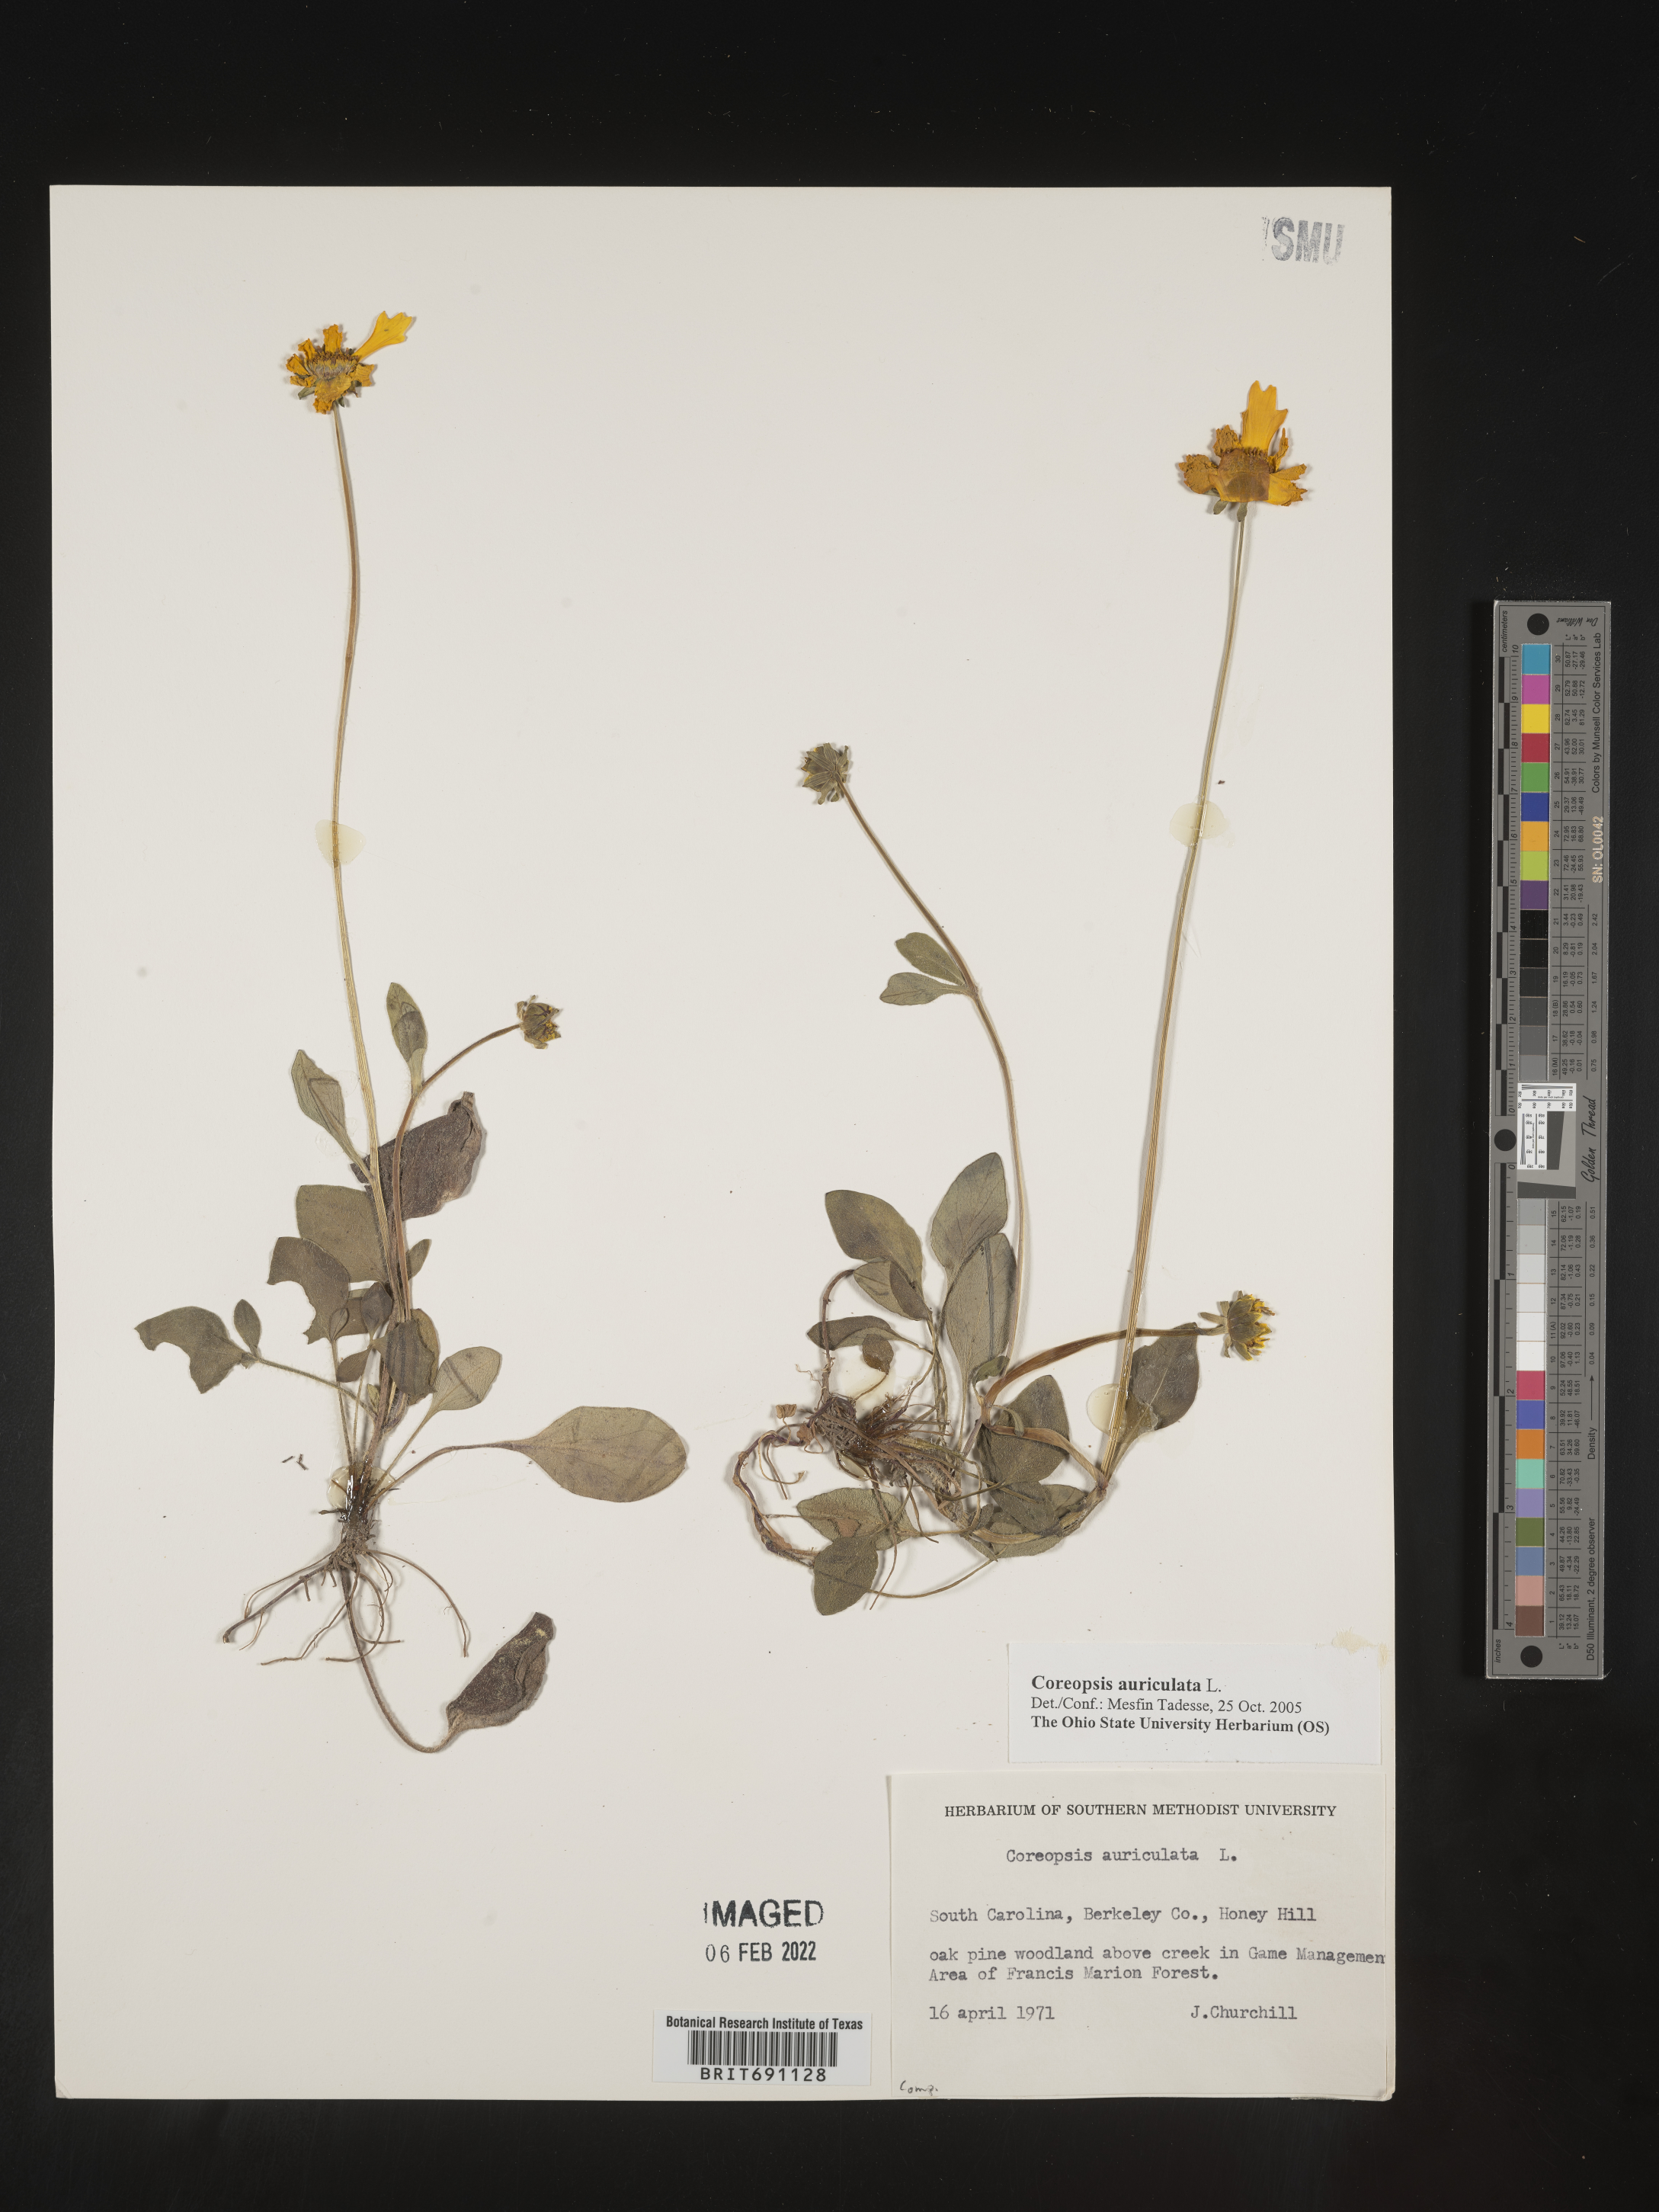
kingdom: Plantae
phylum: Tracheophyta
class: Magnoliopsida
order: Asterales
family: Asteraceae
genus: Coreopsis
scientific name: Coreopsis auriculata
